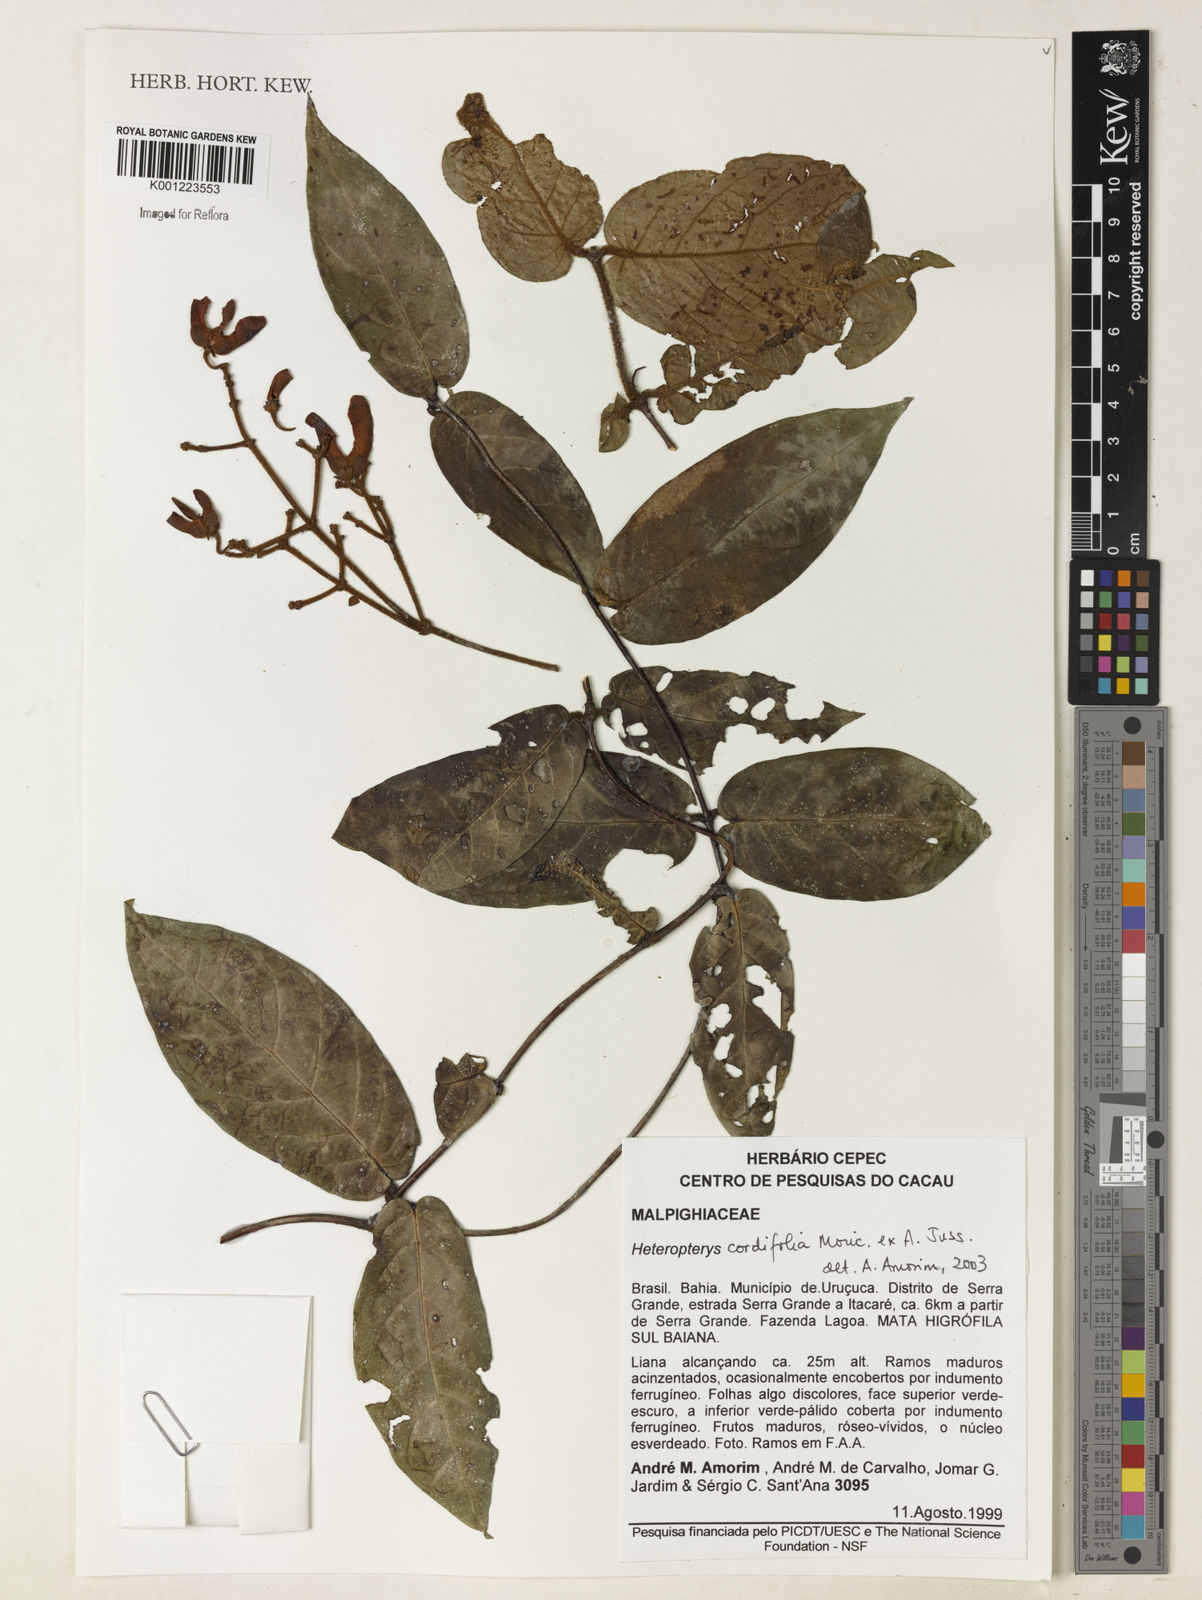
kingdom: Plantae
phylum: Tracheophyta
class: Magnoliopsida
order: Malpighiales
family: Malpighiaceae
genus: Heteropterys
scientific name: Heteropterys cordifolia
